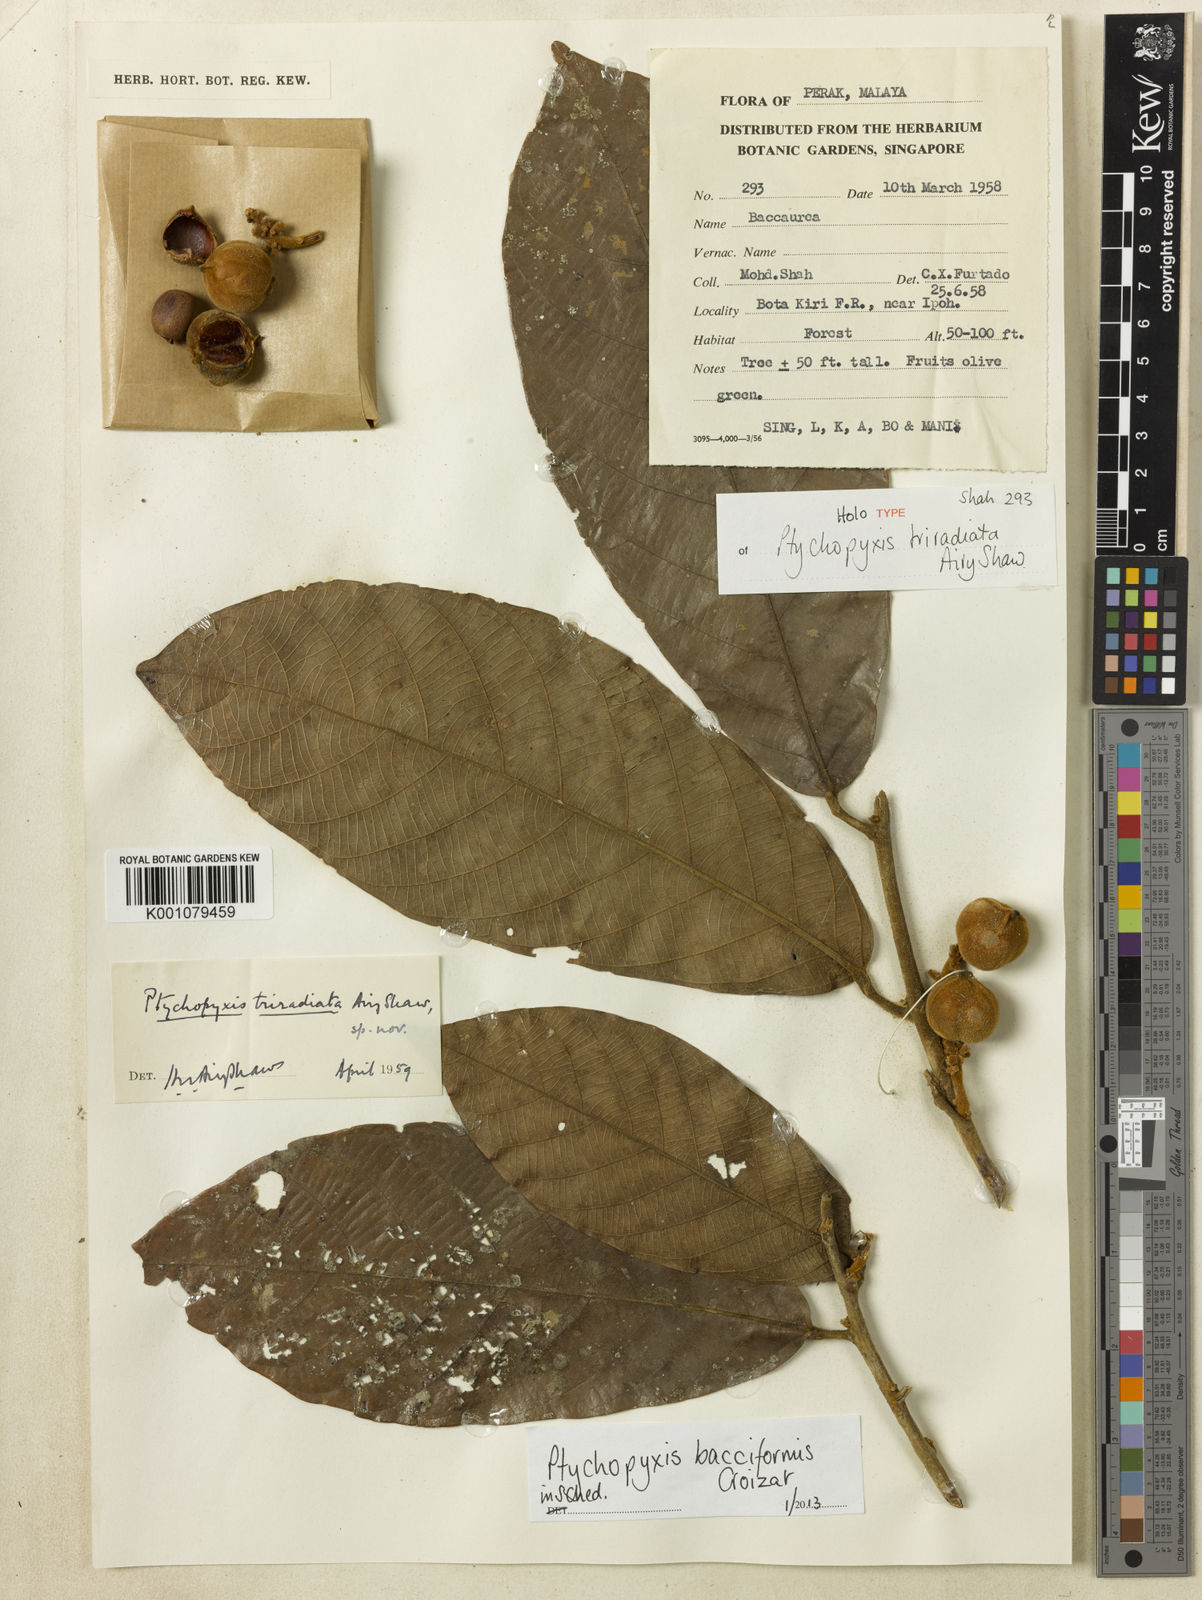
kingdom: Plantae
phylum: Tracheophyta
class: Magnoliopsida
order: Malpighiales
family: Euphorbiaceae
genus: Ptychopyxis
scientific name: Ptychopyxis bacciformis
